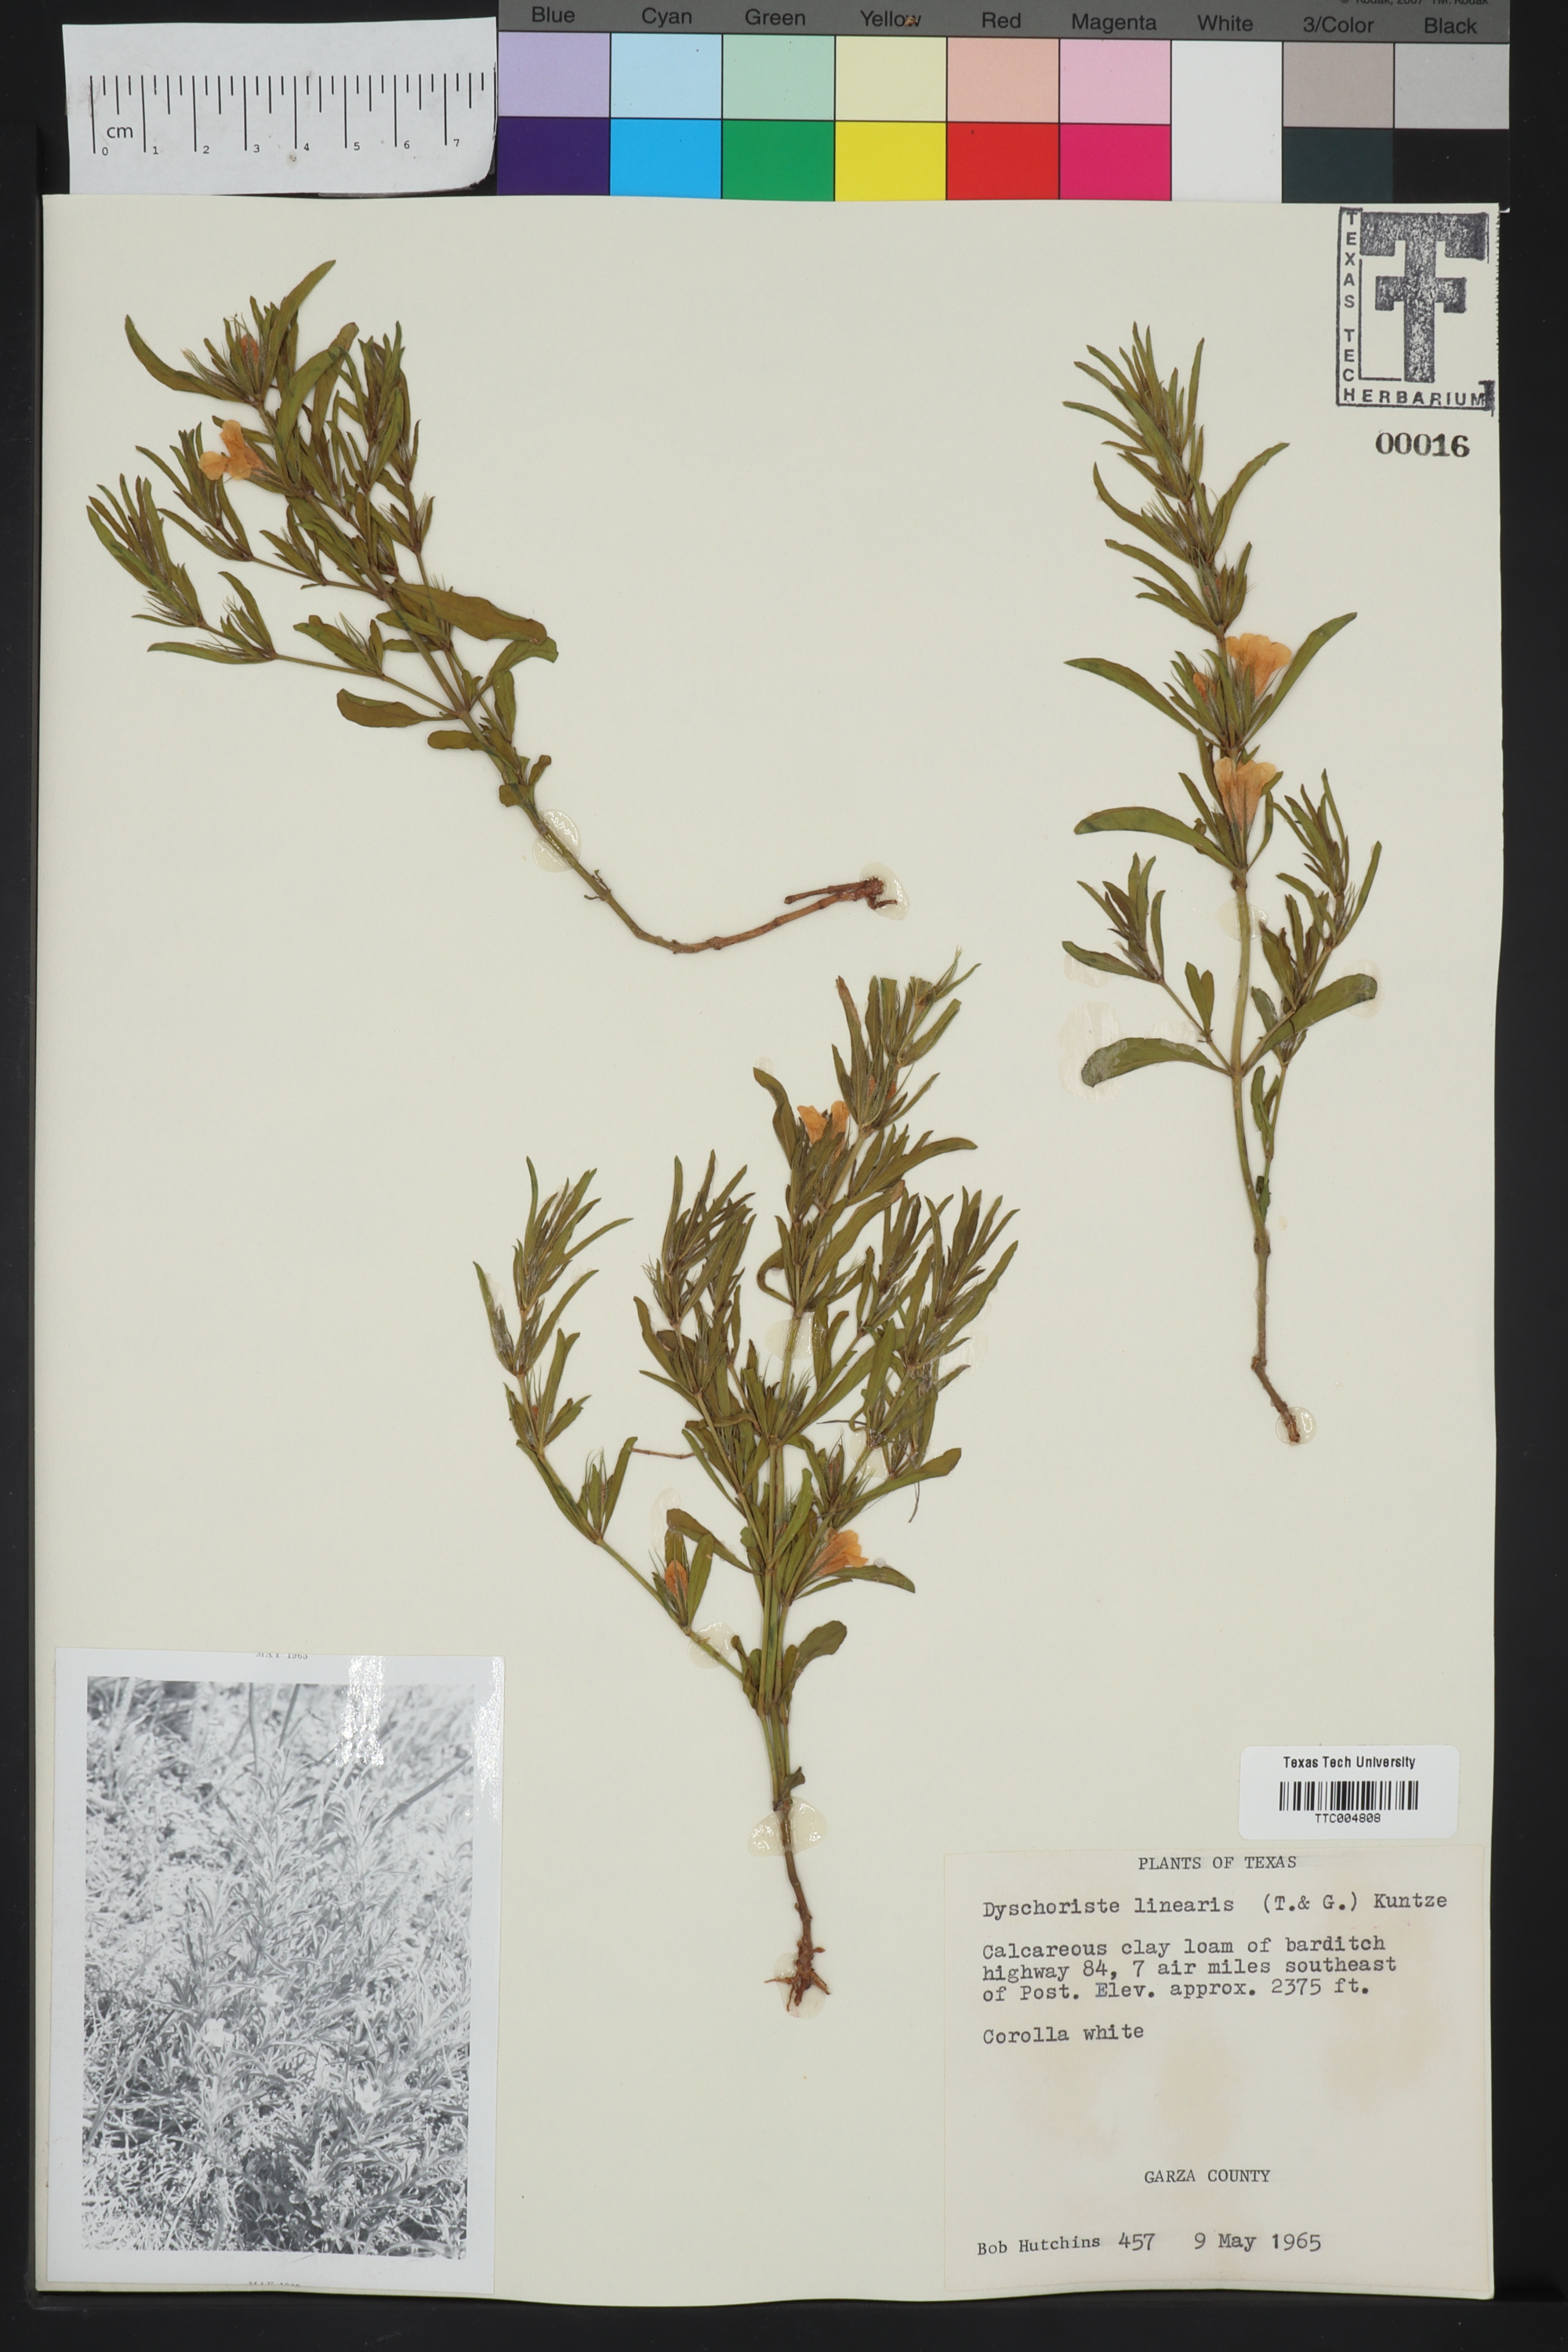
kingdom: Plantae
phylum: Tracheophyta
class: Magnoliopsida
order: Lamiales
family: Acanthaceae
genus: Dyschoriste
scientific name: Dyschoriste linearis
